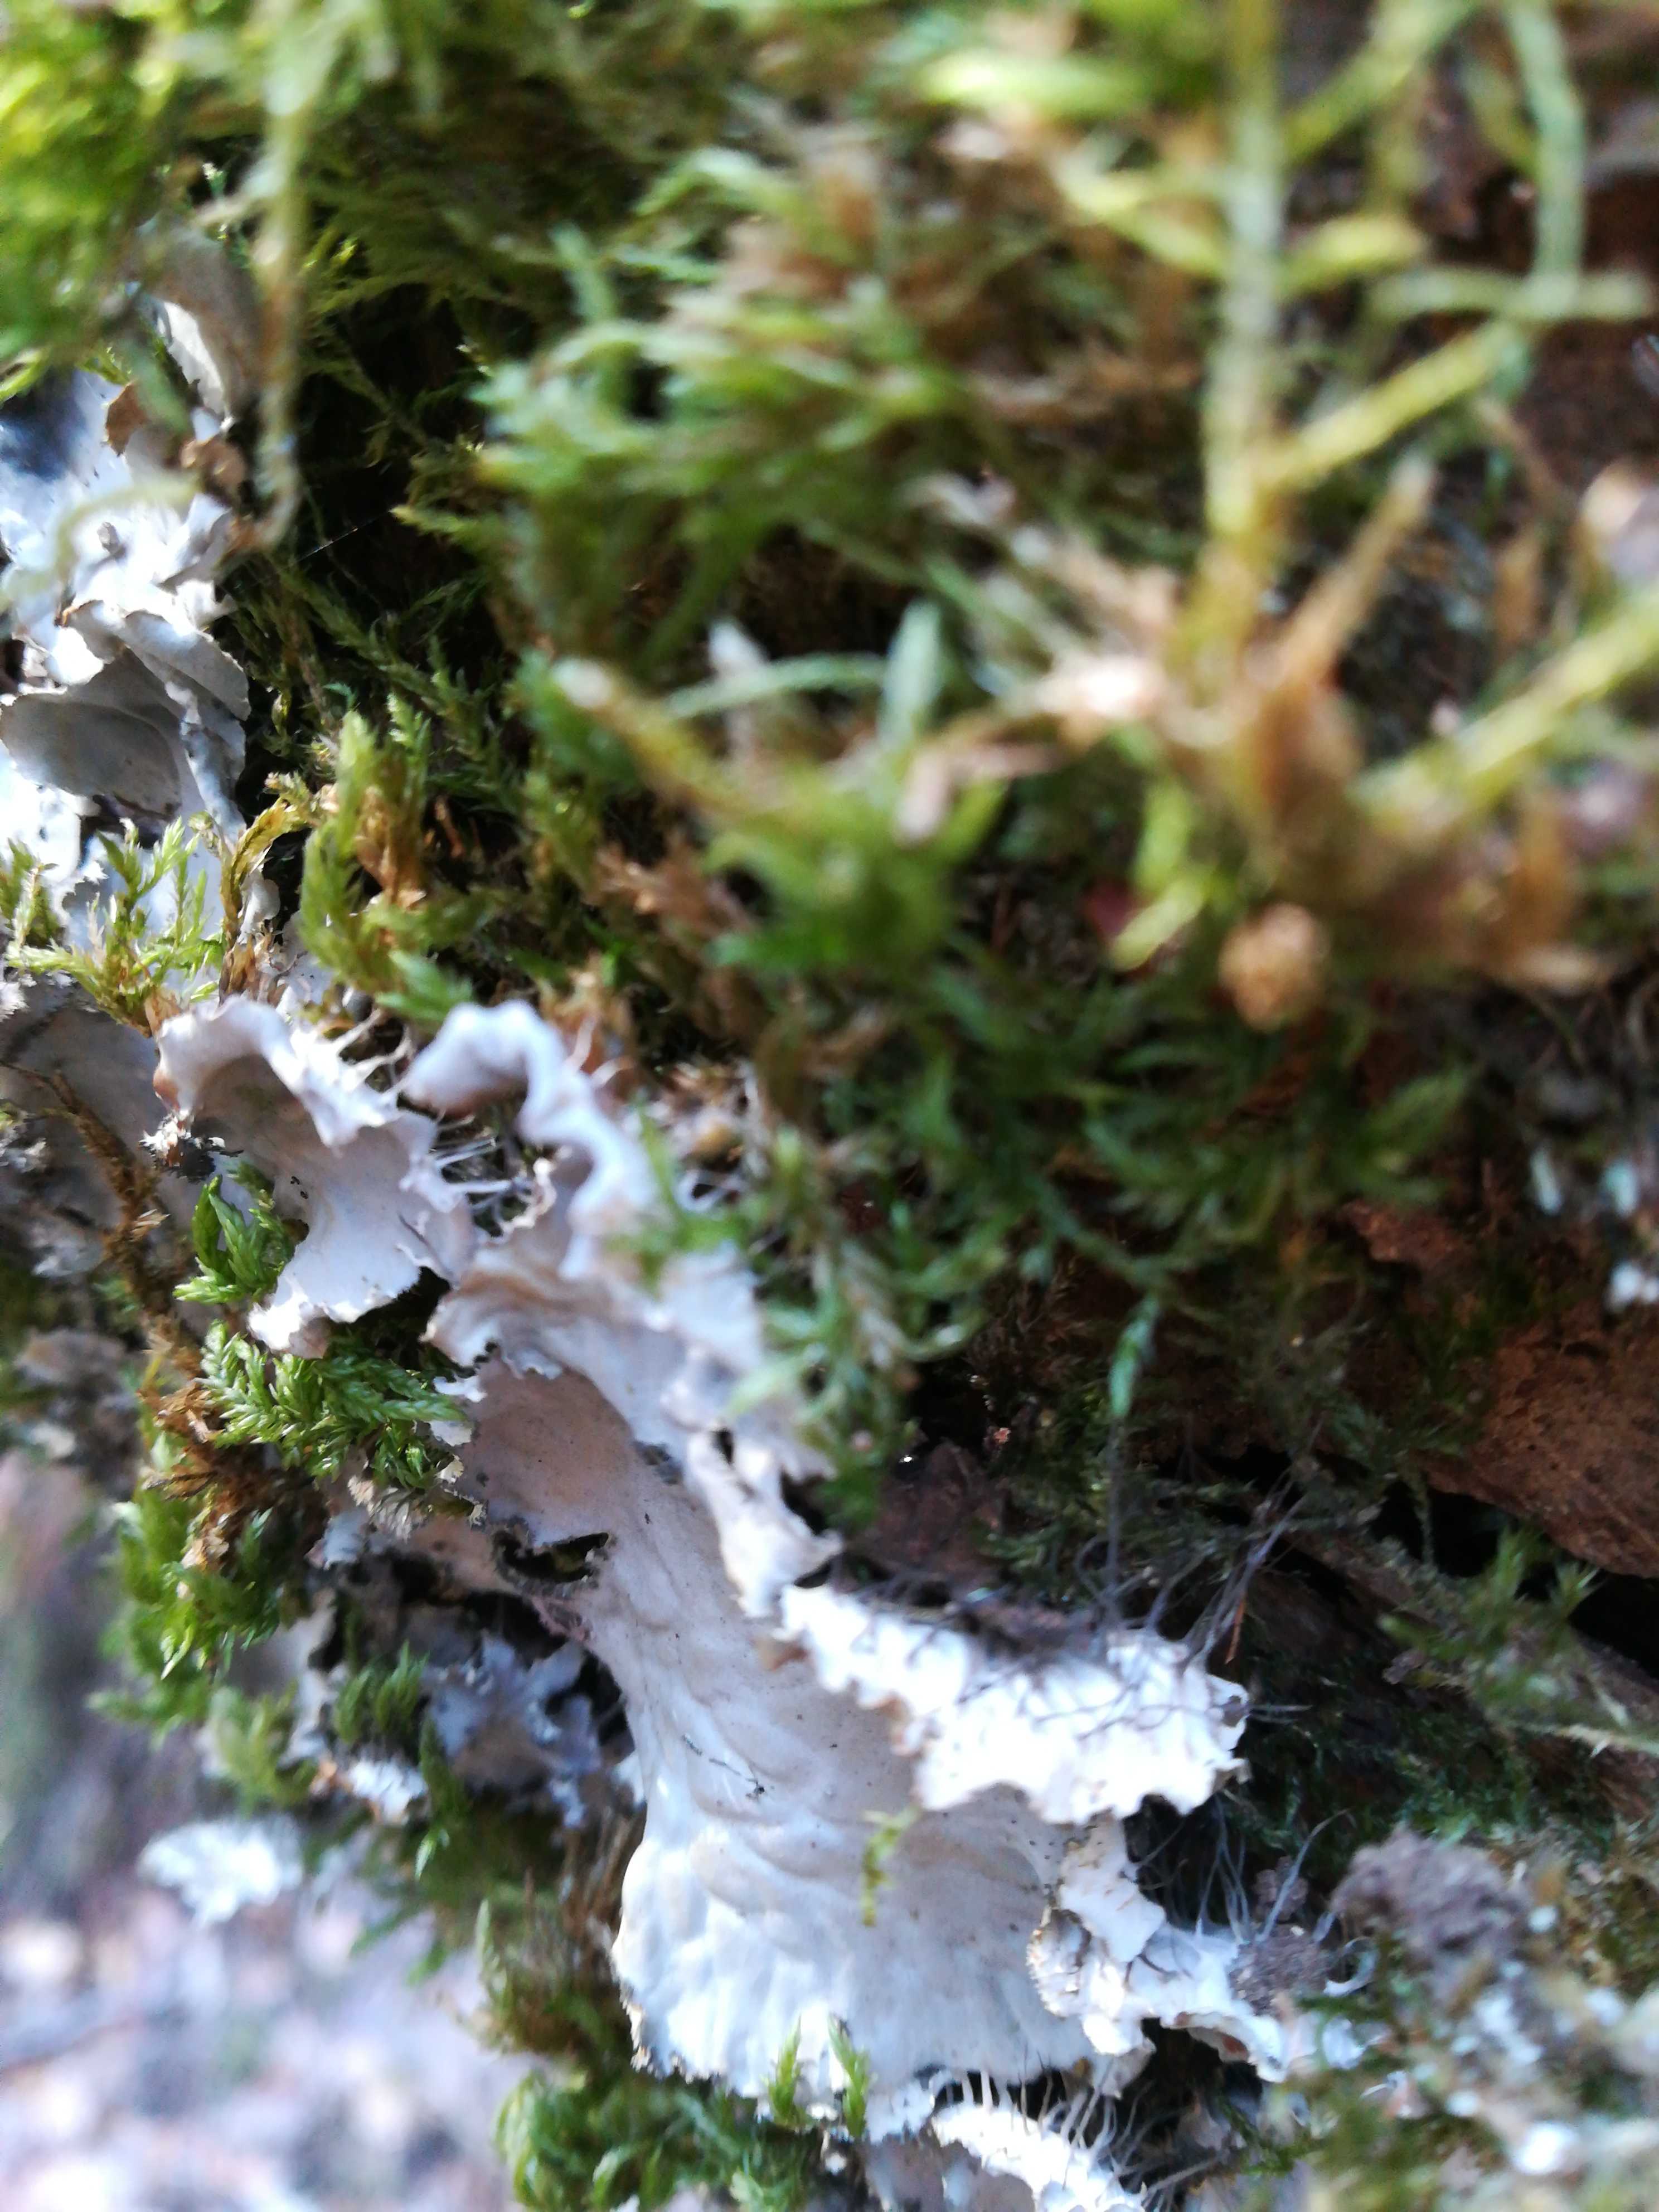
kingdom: Fungi
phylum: Ascomycota
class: Lecanoromycetes
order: Peltigerales
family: Peltigeraceae
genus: Peltigera
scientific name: Peltigera
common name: skjoldlav
